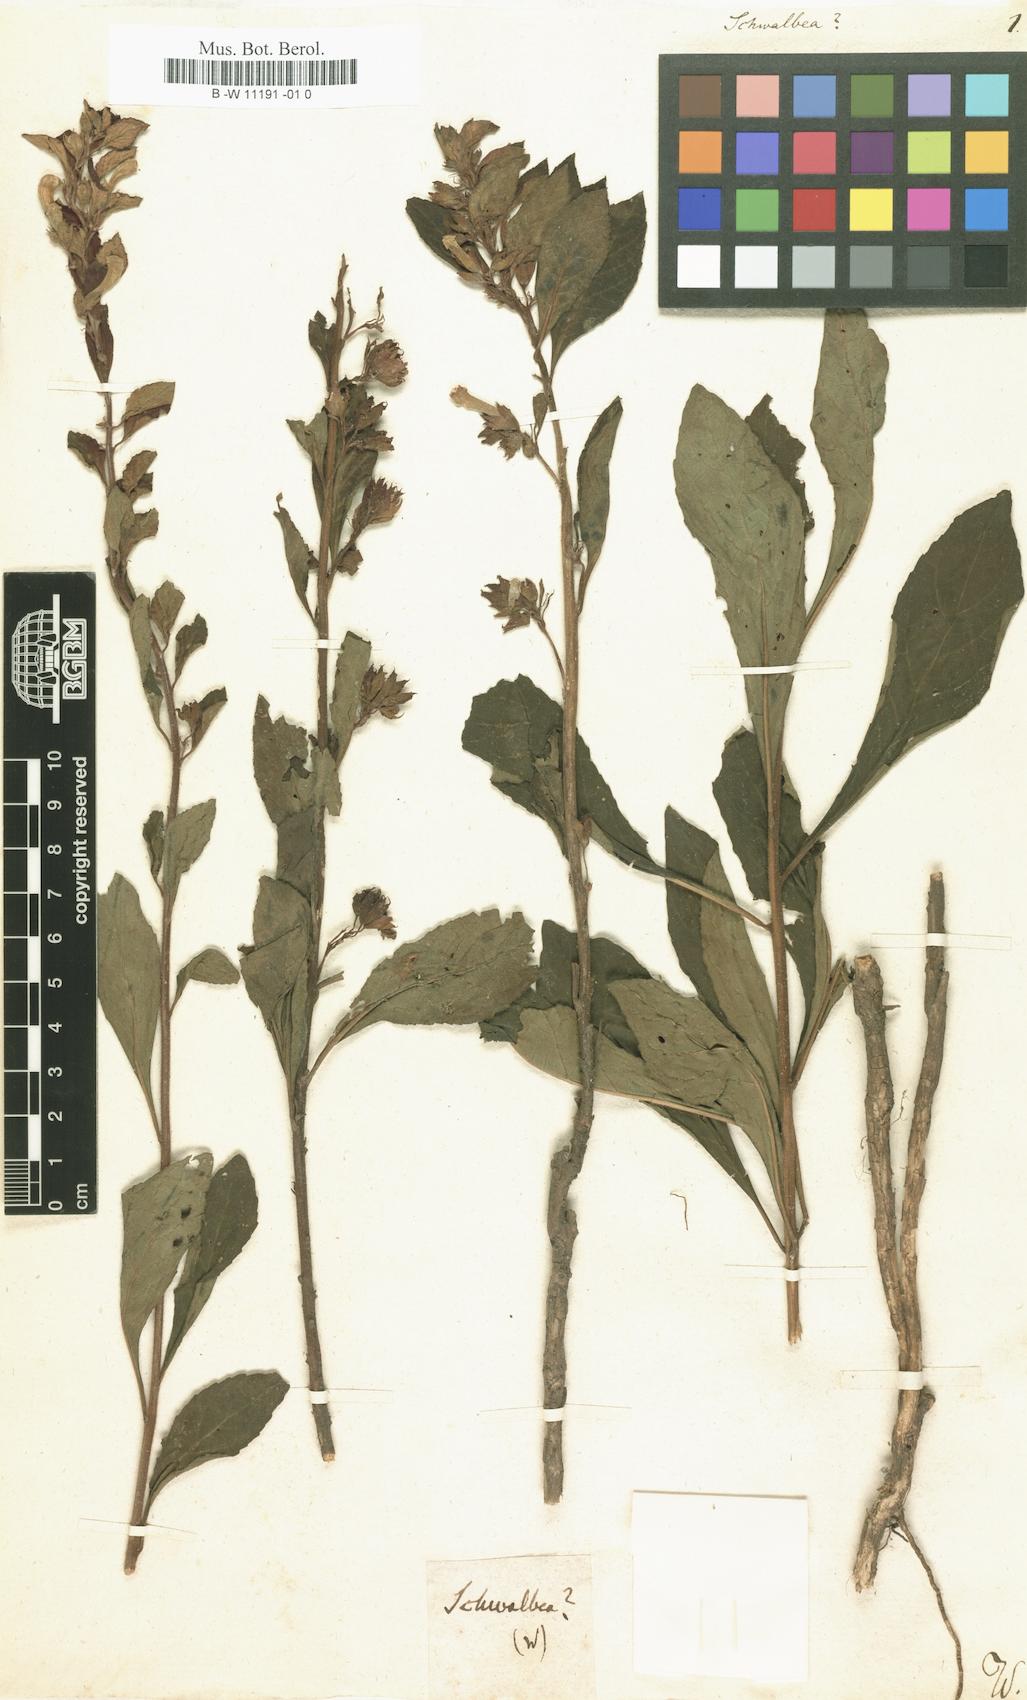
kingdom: Plantae
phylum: Tracheophyta
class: Magnoliopsida
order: Lamiales
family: Orobanchaceae
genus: Schwalbea
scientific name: Schwalbea
